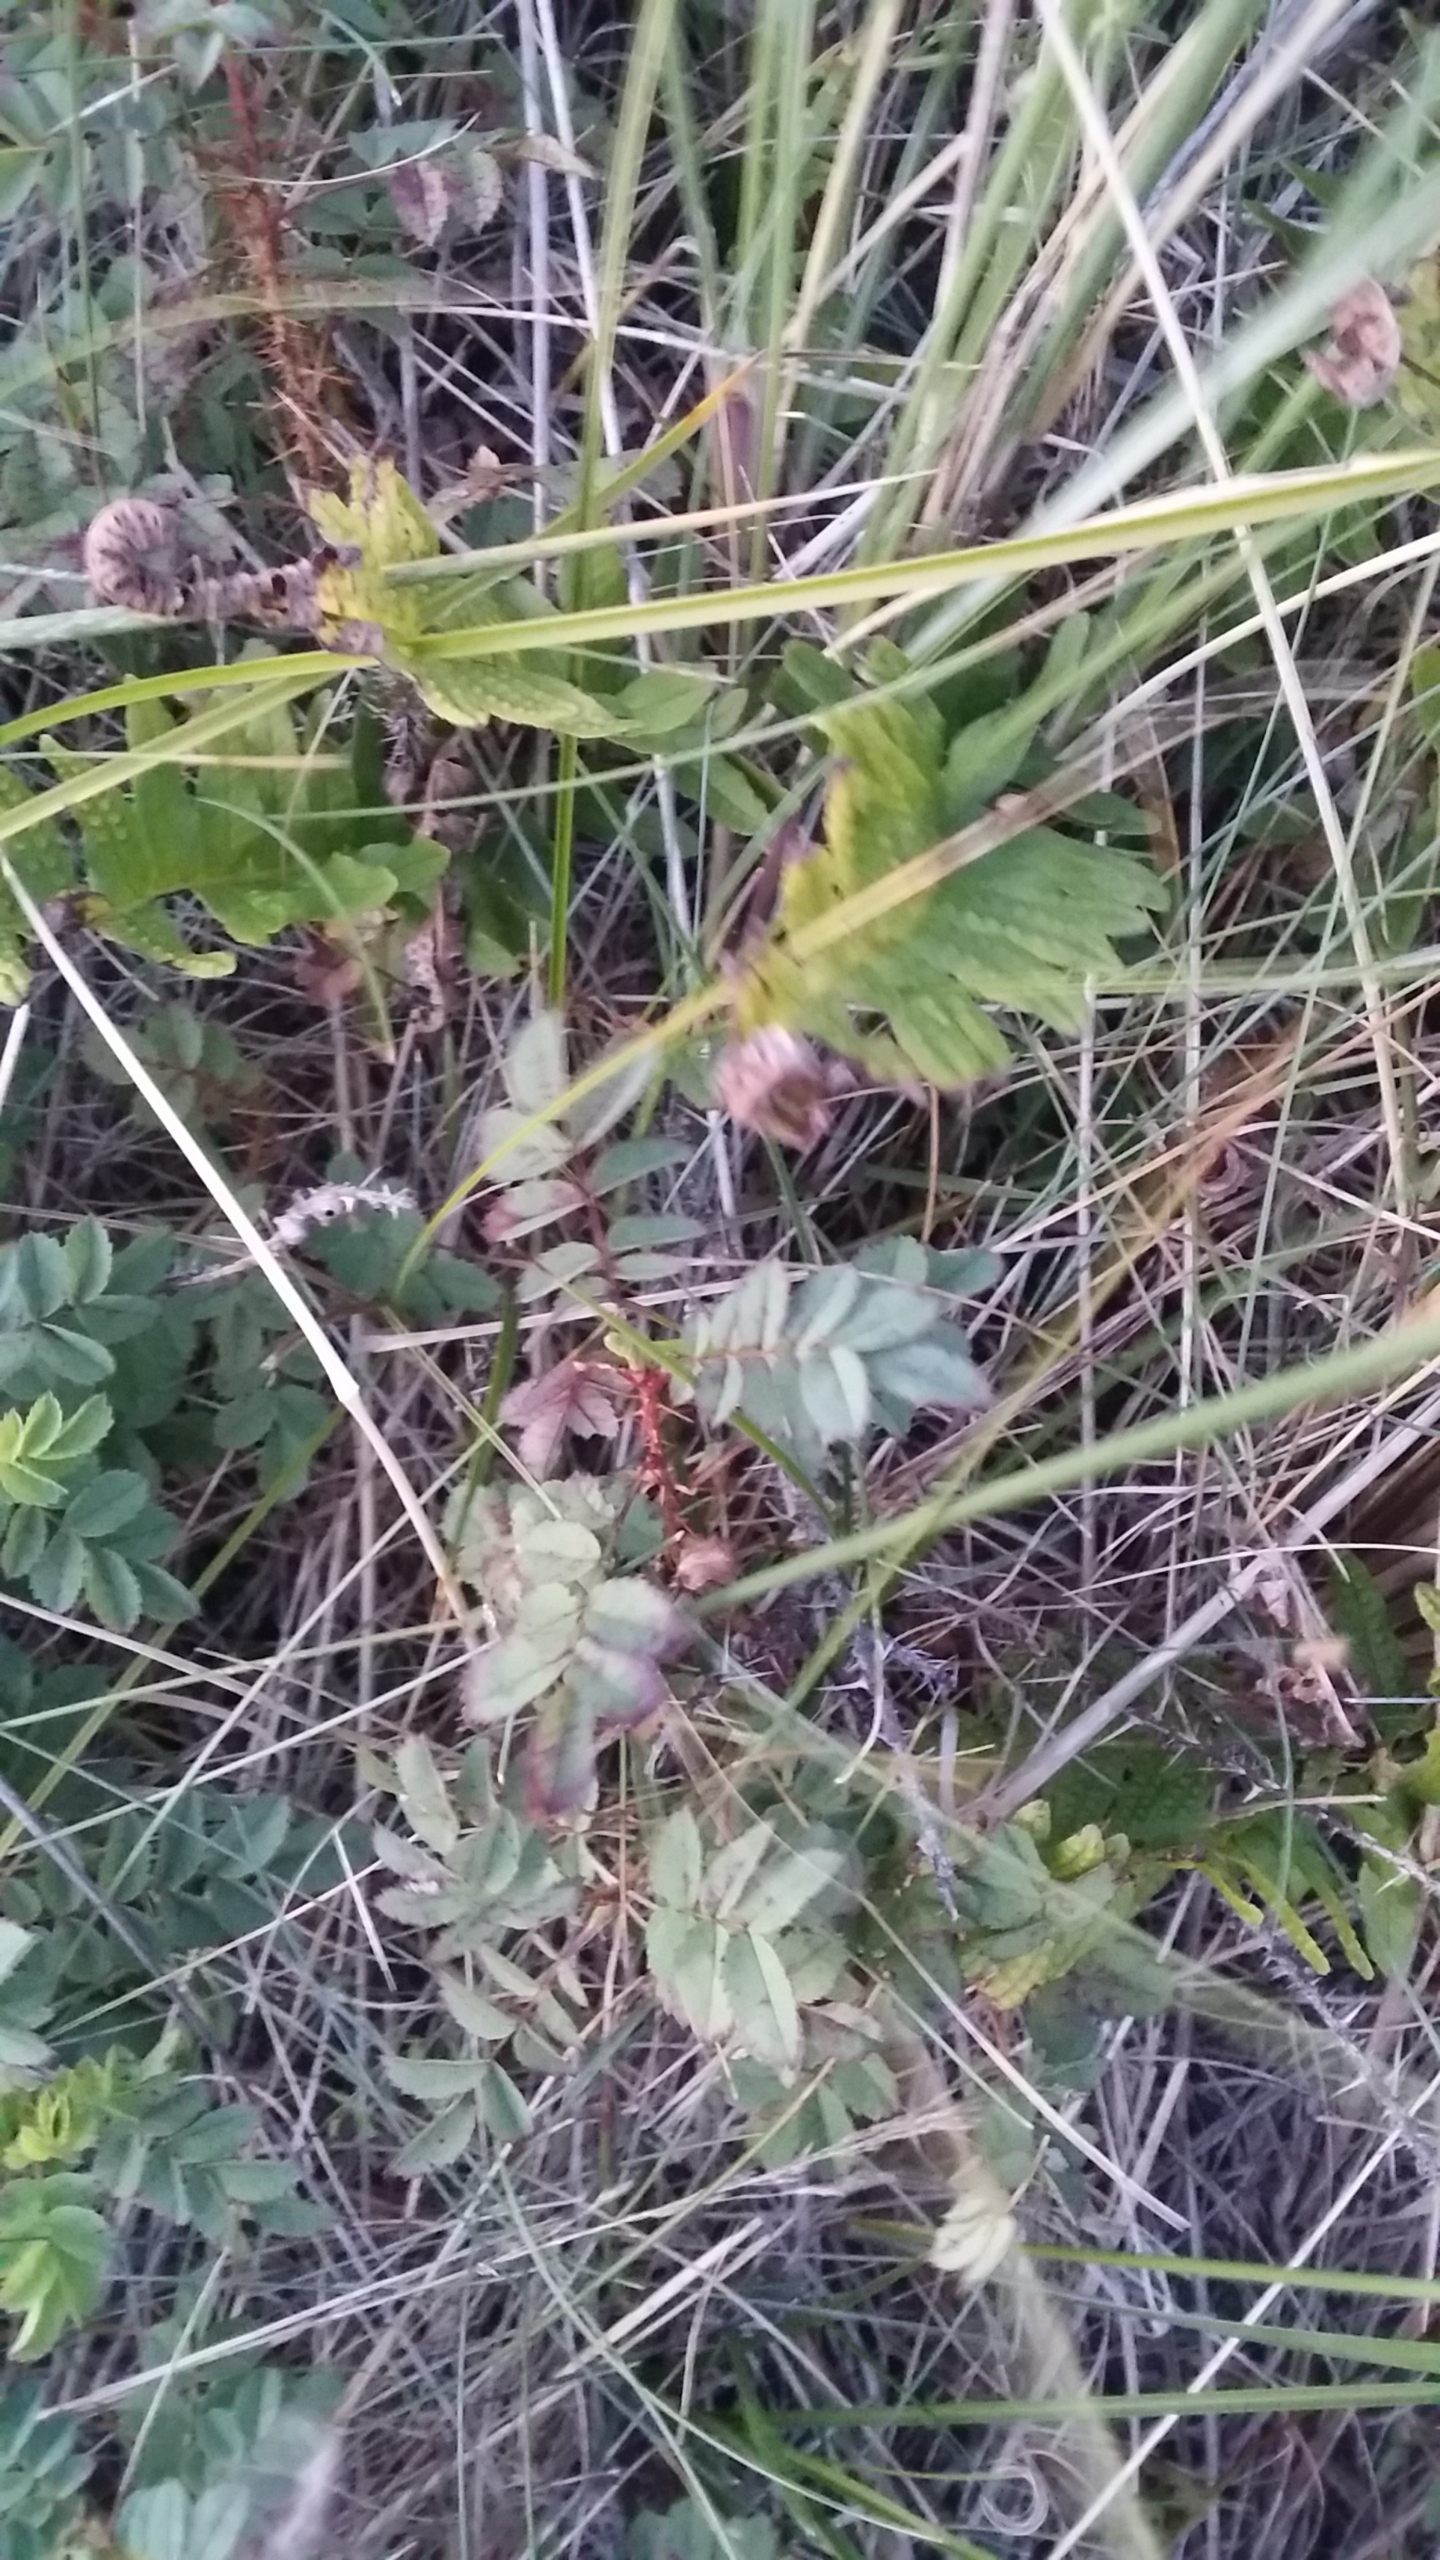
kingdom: Plantae
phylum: Tracheophyta
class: Magnoliopsida
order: Rosales
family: Rosaceae
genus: Rosa
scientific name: Rosa spinosissima
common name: Klit-rose
